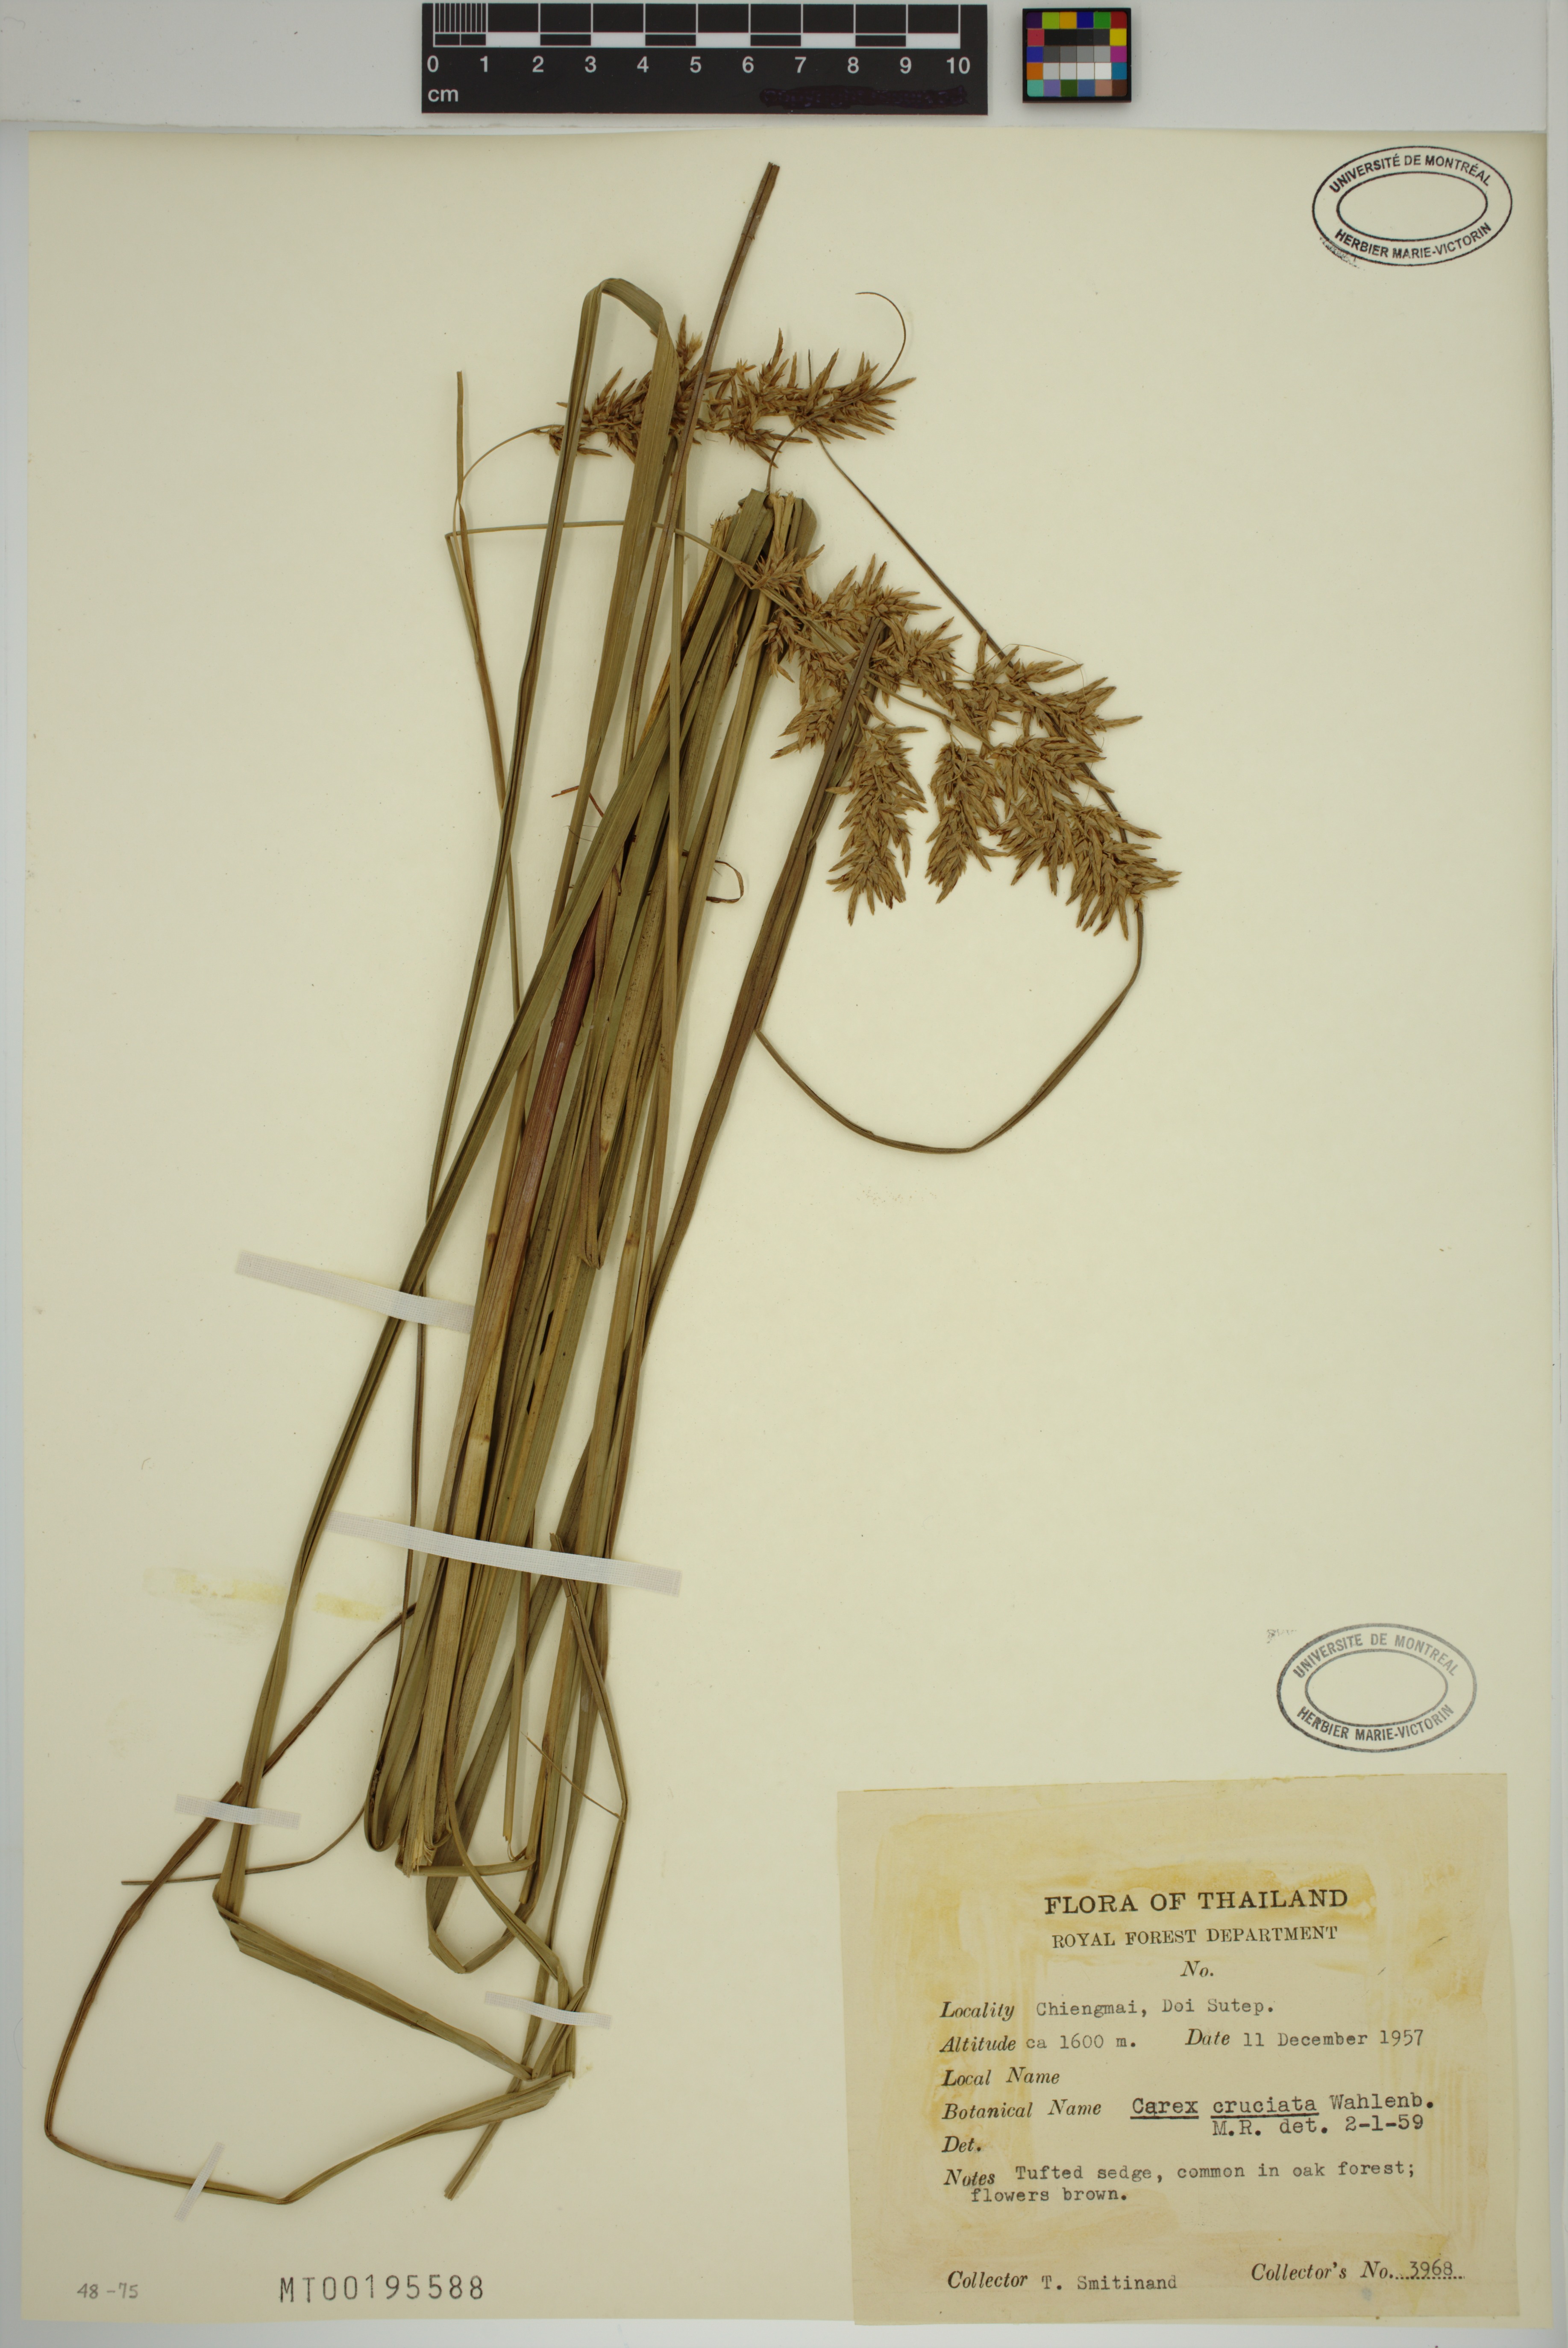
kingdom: Plantae
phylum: Tracheophyta
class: Liliopsida
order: Poales
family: Cyperaceae
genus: Carex
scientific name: Carex cruciata
